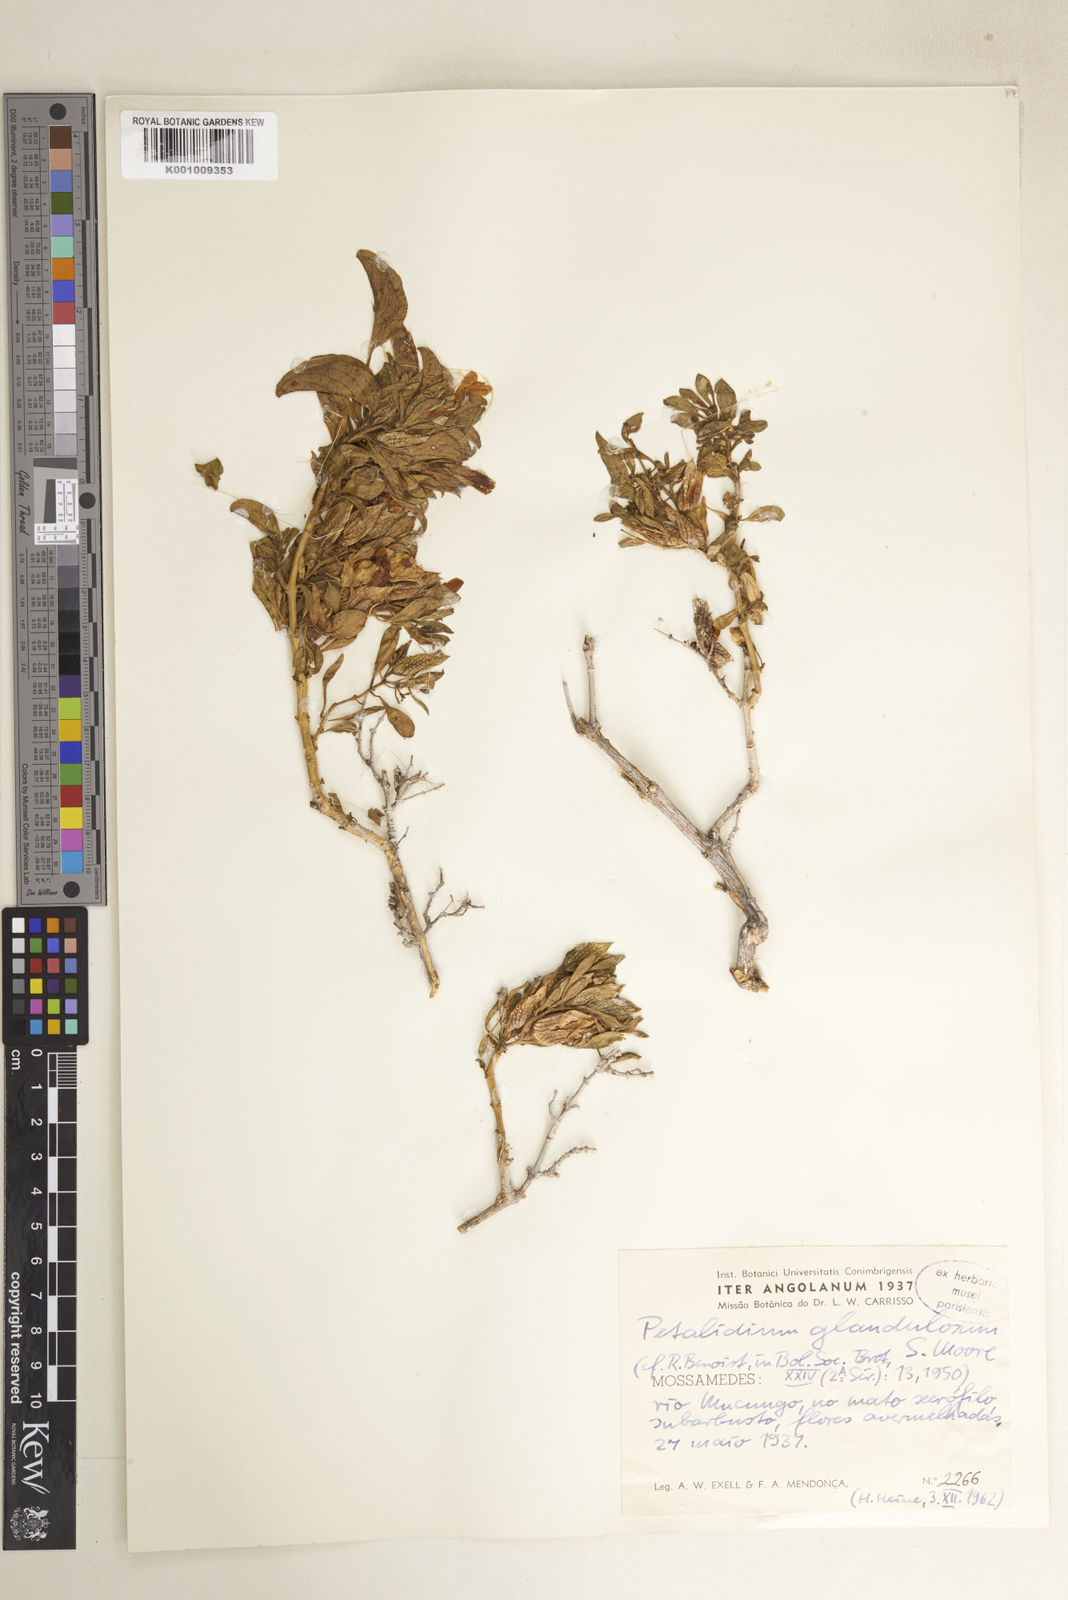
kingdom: Plantae
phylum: Tracheophyta
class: Magnoliopsida
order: Lamiales
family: Acanthaceae
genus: Petalidium
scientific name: Petalidium glandulosum
